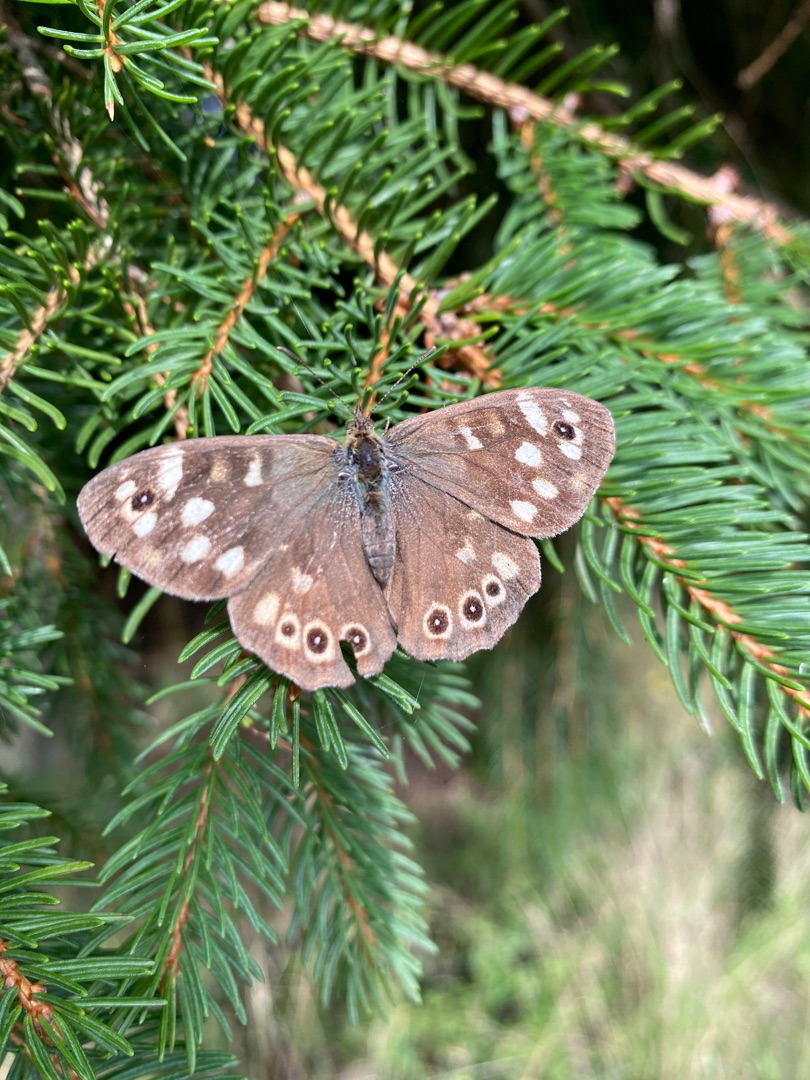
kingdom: Animalia
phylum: Arthropoda
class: Insecta
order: Lepidoptera
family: Nymphalidae
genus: Pararge
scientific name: Pararge aegeria
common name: Skovrandøje
